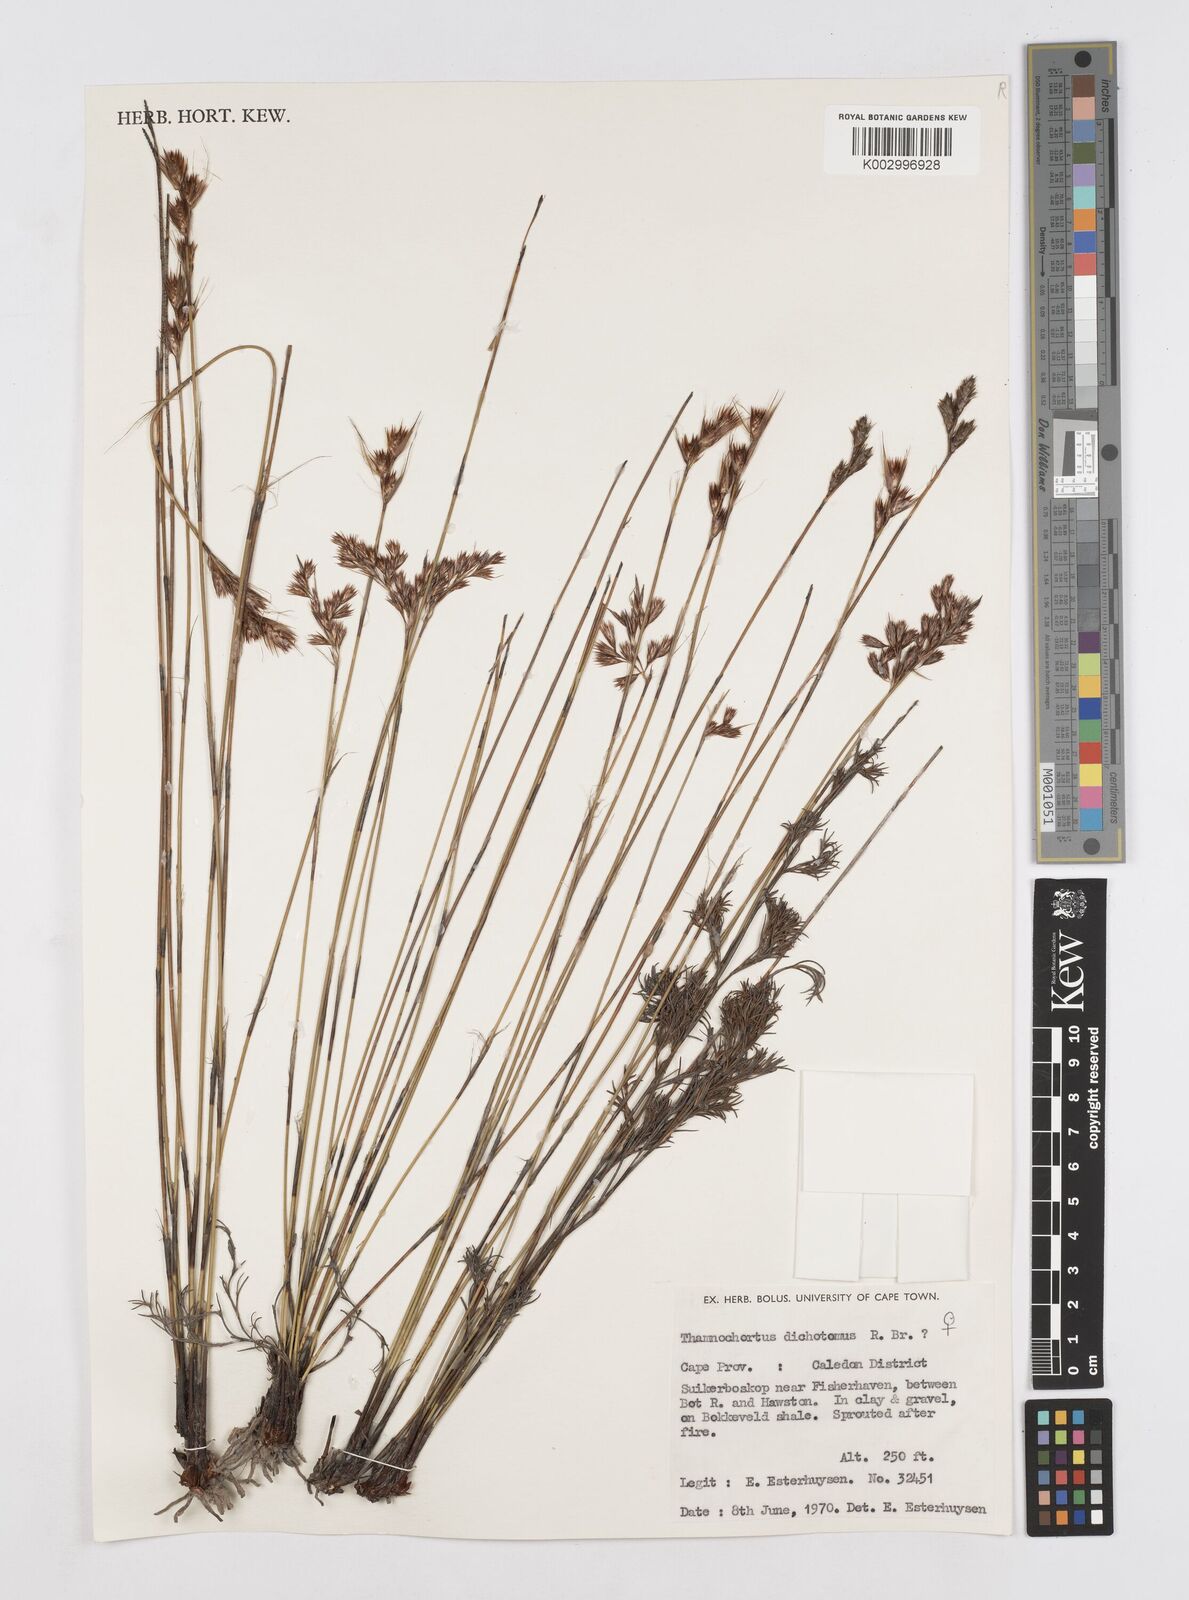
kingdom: Plantae
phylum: Tracheophyta
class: Liliopsida
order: Poales
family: Restionaceae
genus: Thamnochortus
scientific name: Thamnochortus lucens
